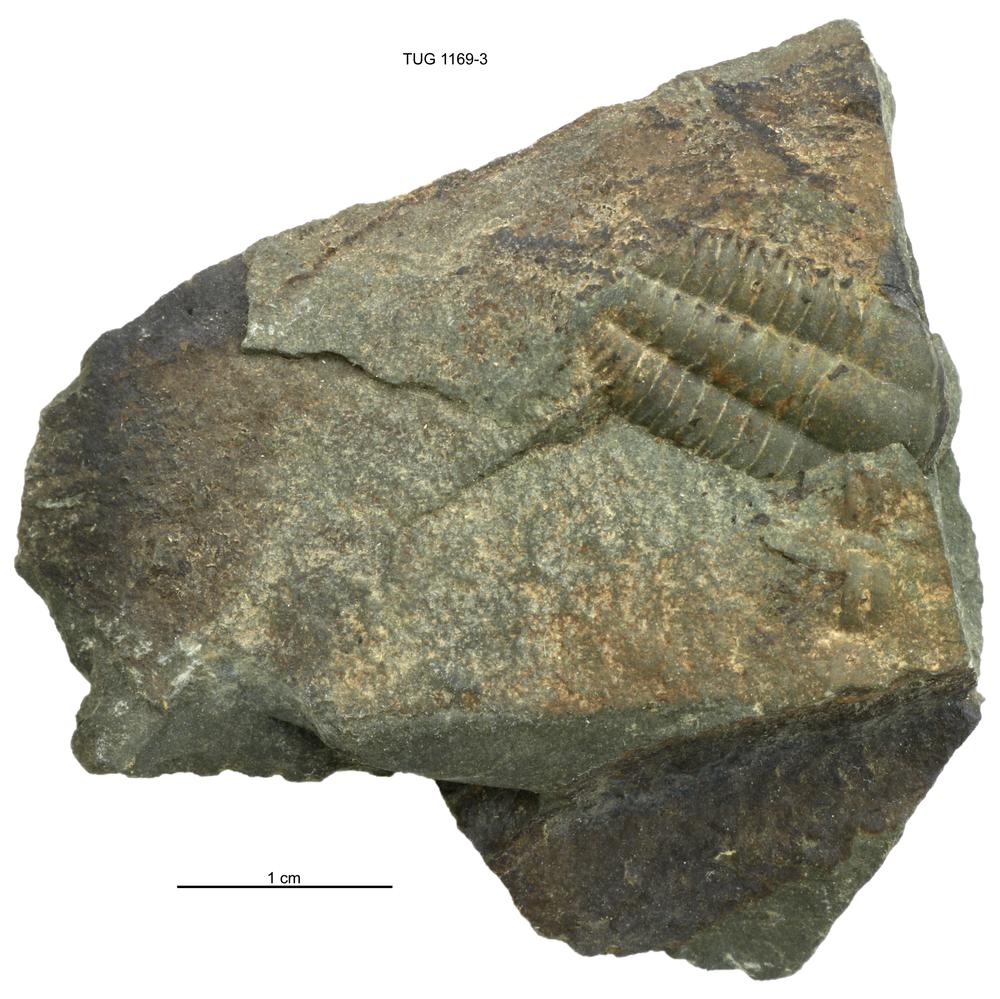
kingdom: Animalia
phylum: Arthropoda
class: Trilobita
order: Ptychopariida
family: Ellipsocephalidae
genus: Ellipsocephalus
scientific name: Ellipsocephalus
